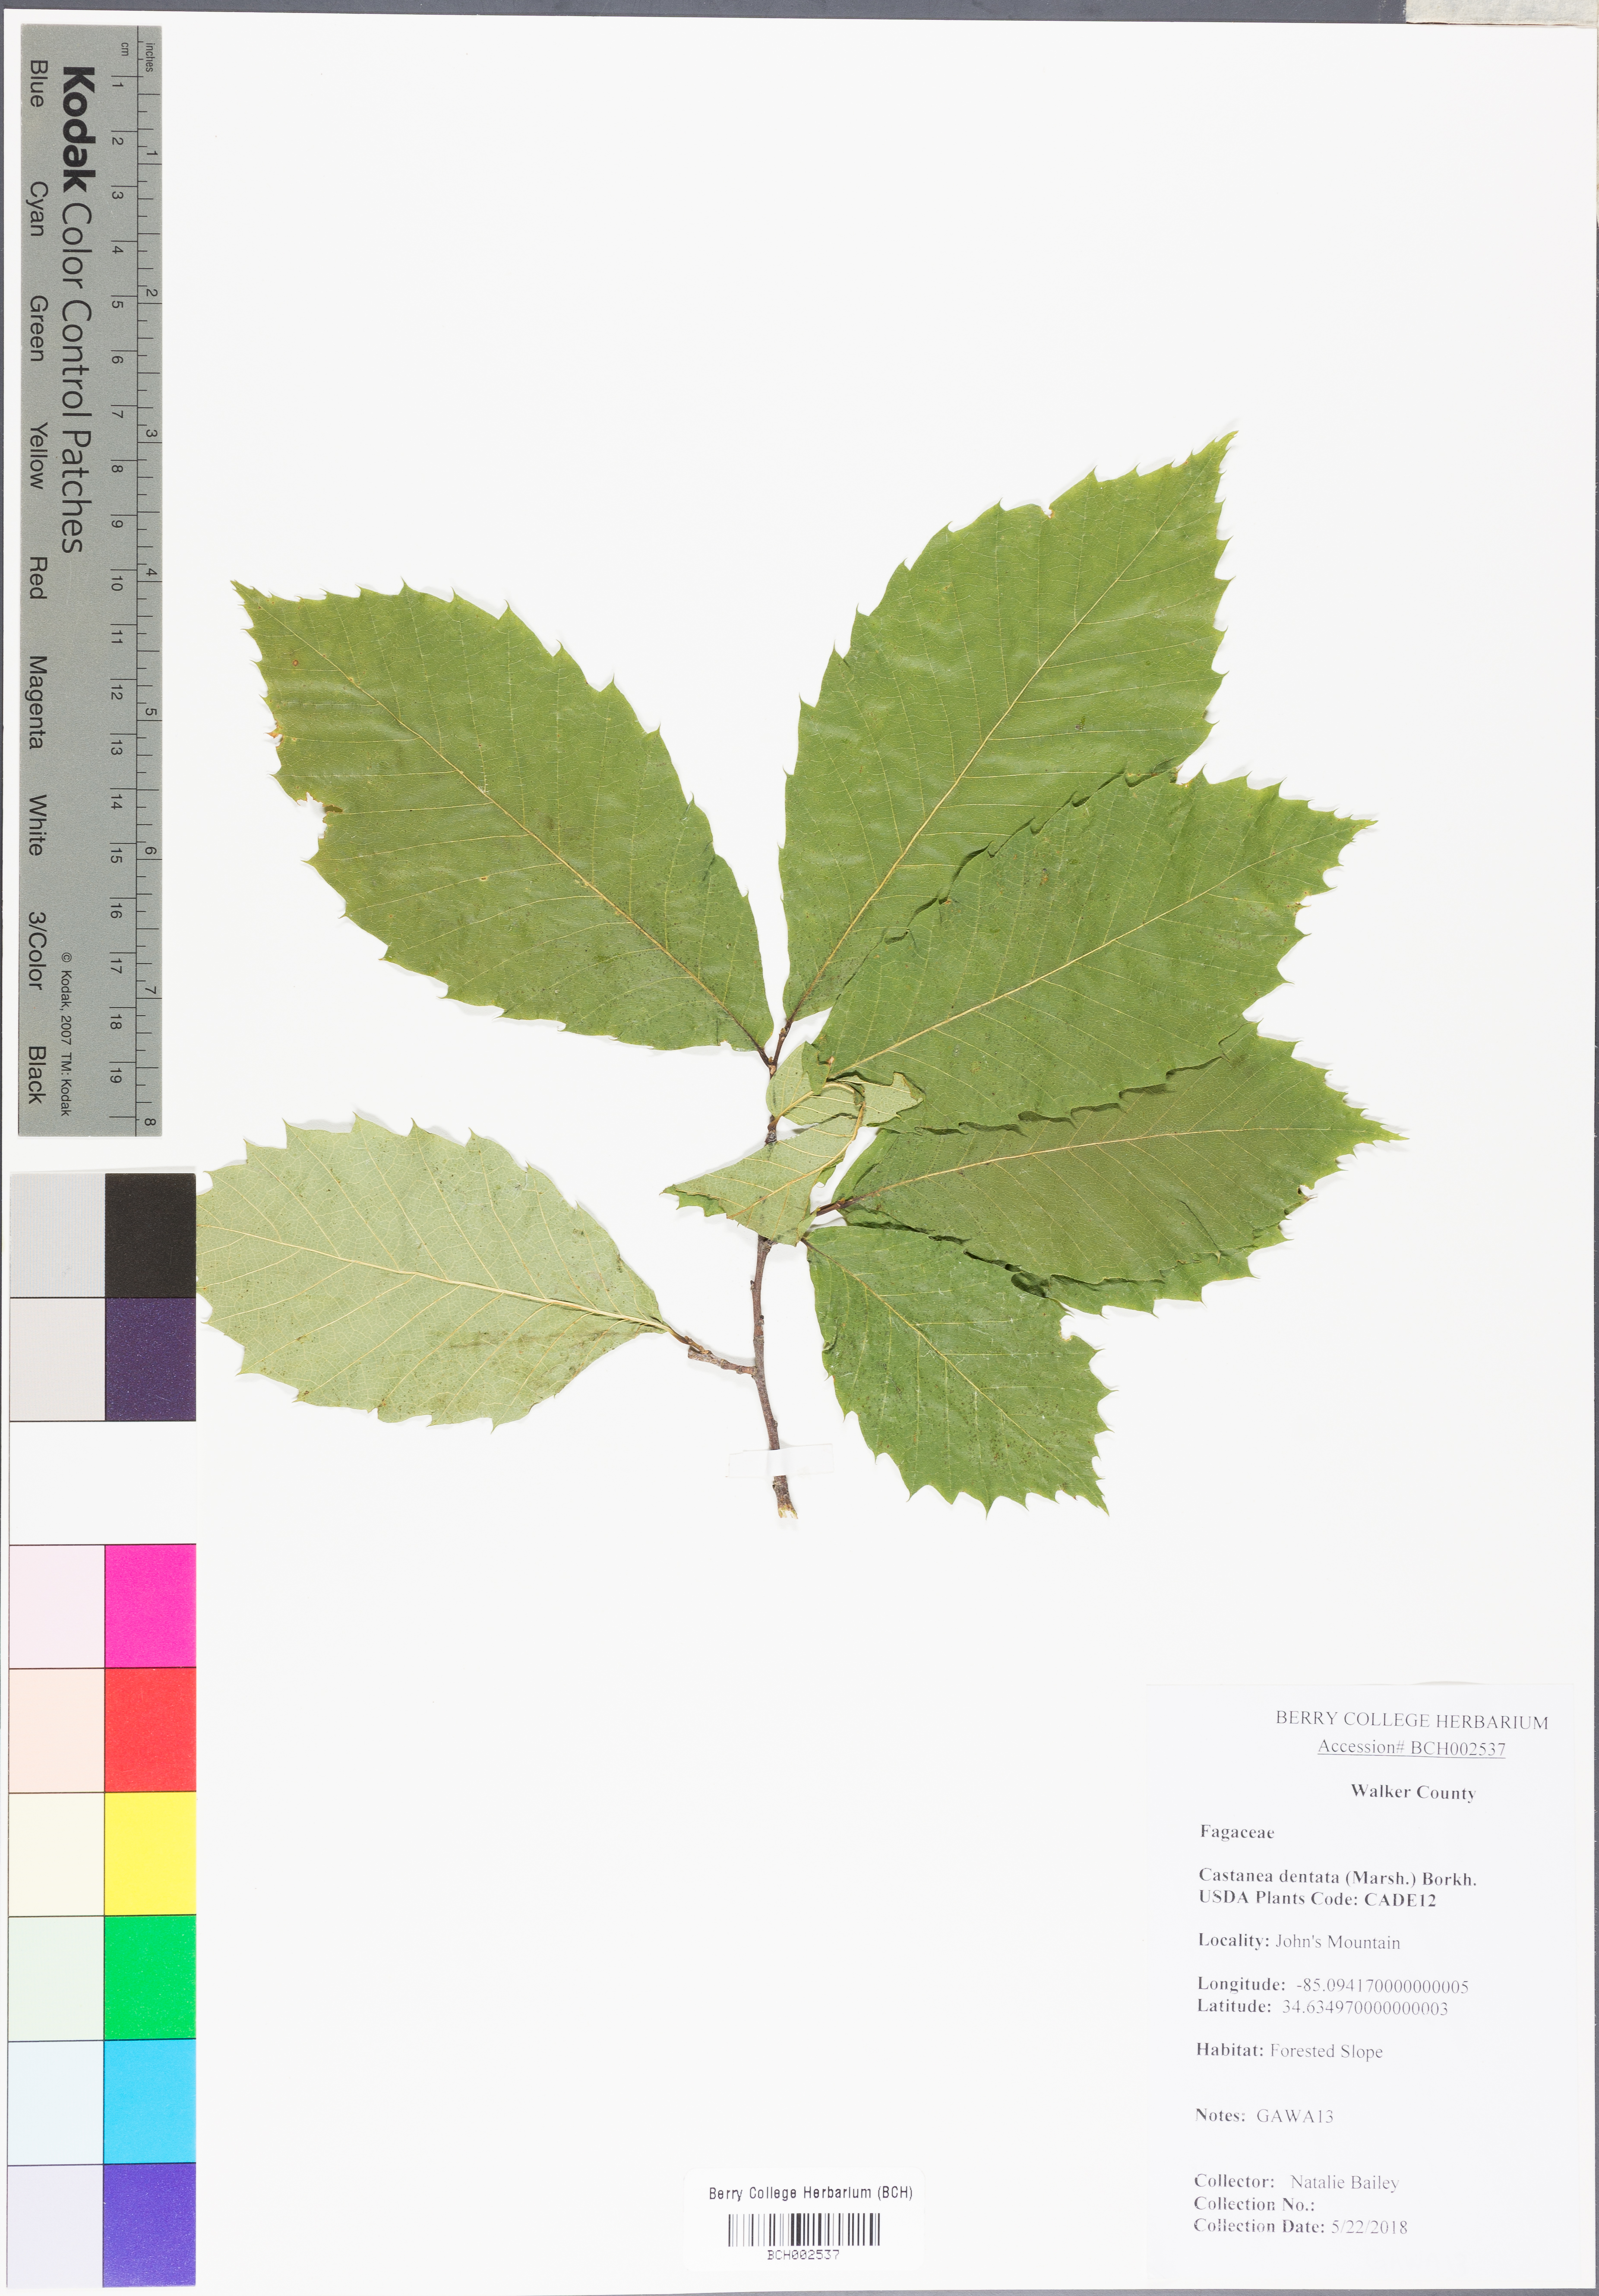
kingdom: Plantae
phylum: Tracheophyta
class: Magnoliopsida
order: Fagales
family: Fagaceae
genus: Castanea
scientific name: Castanea dentata
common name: American chestnut
